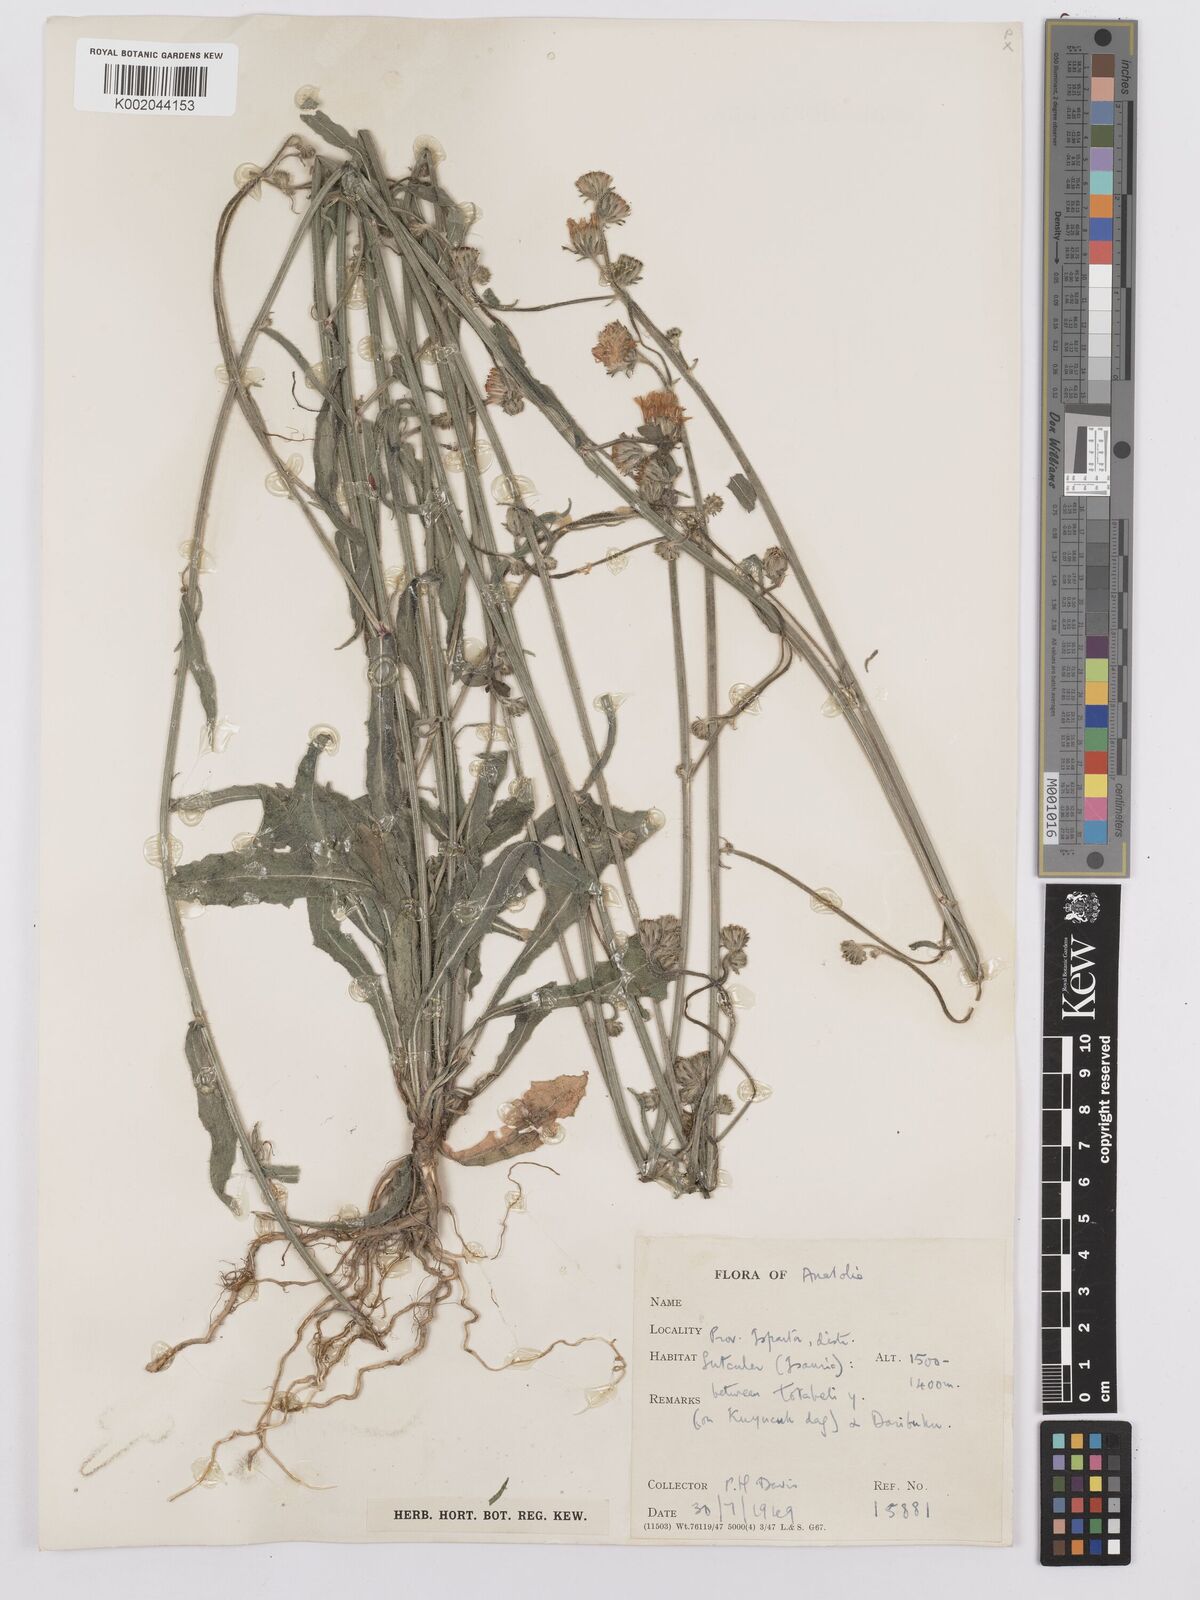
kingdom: Plantae
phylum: Tracheophyta
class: Magnoliopsida
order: Asterales
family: Asteraceae
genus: Picris
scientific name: Picris
